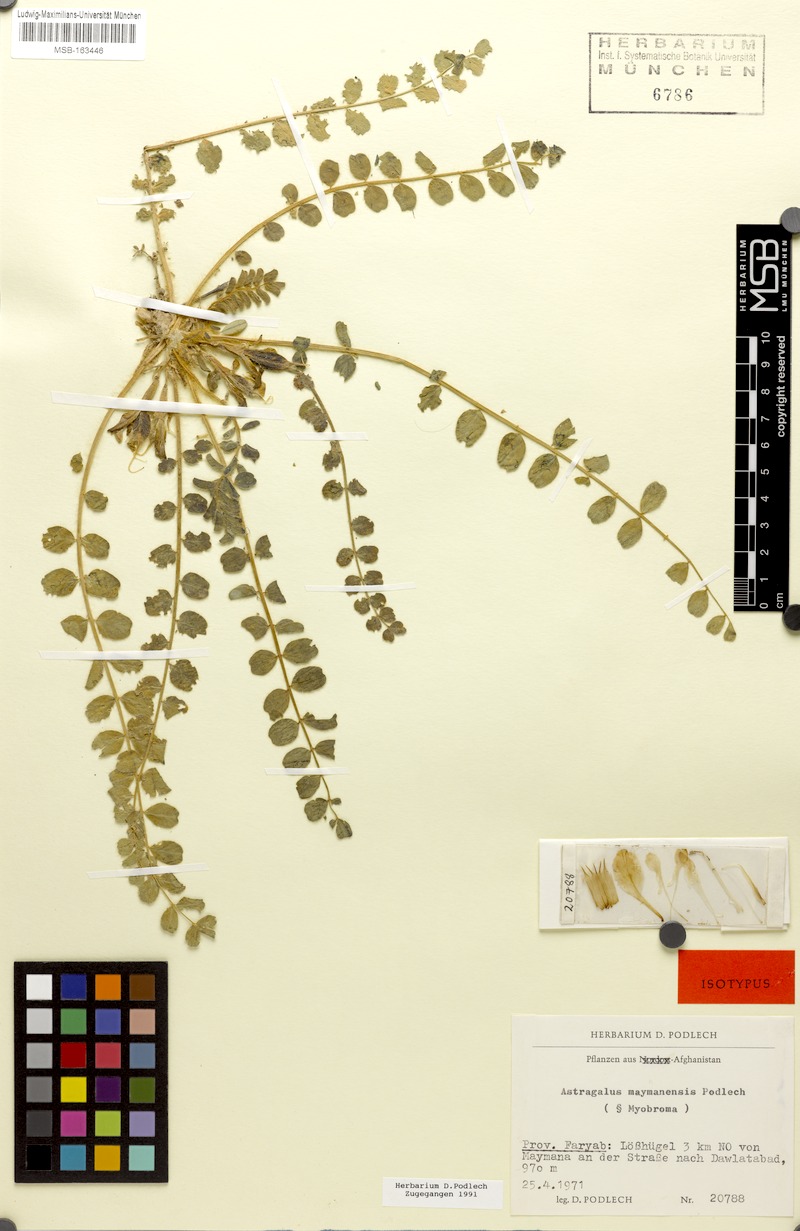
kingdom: Plantae
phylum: Tracheophyta
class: Magnoliopsida
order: Fabales
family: Fabaceae
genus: Astragalus
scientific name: Astragalus nephtonensis
